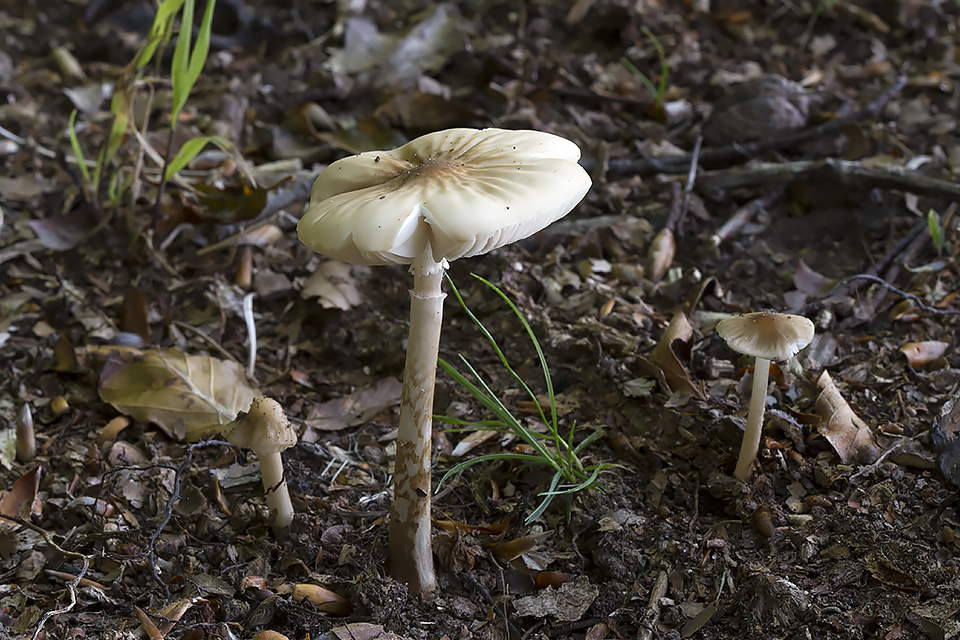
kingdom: Fungi
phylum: Basidiomycota
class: Agaricomycetes
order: Agaricales
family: Physalacriaceae
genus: Hymenopellis
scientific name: Hymenopellis radicata
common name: almindelig pælerodshat
